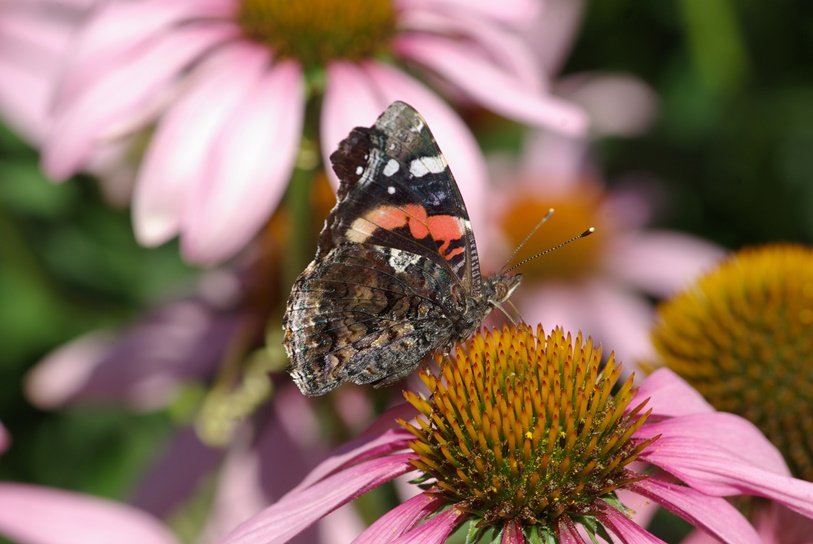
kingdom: Animalia
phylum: Arthropoda
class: Insecta
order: Lepidoptera
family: Nymphalidae
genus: Vanessa
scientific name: Vanessa atalanta
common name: Red Admiral
